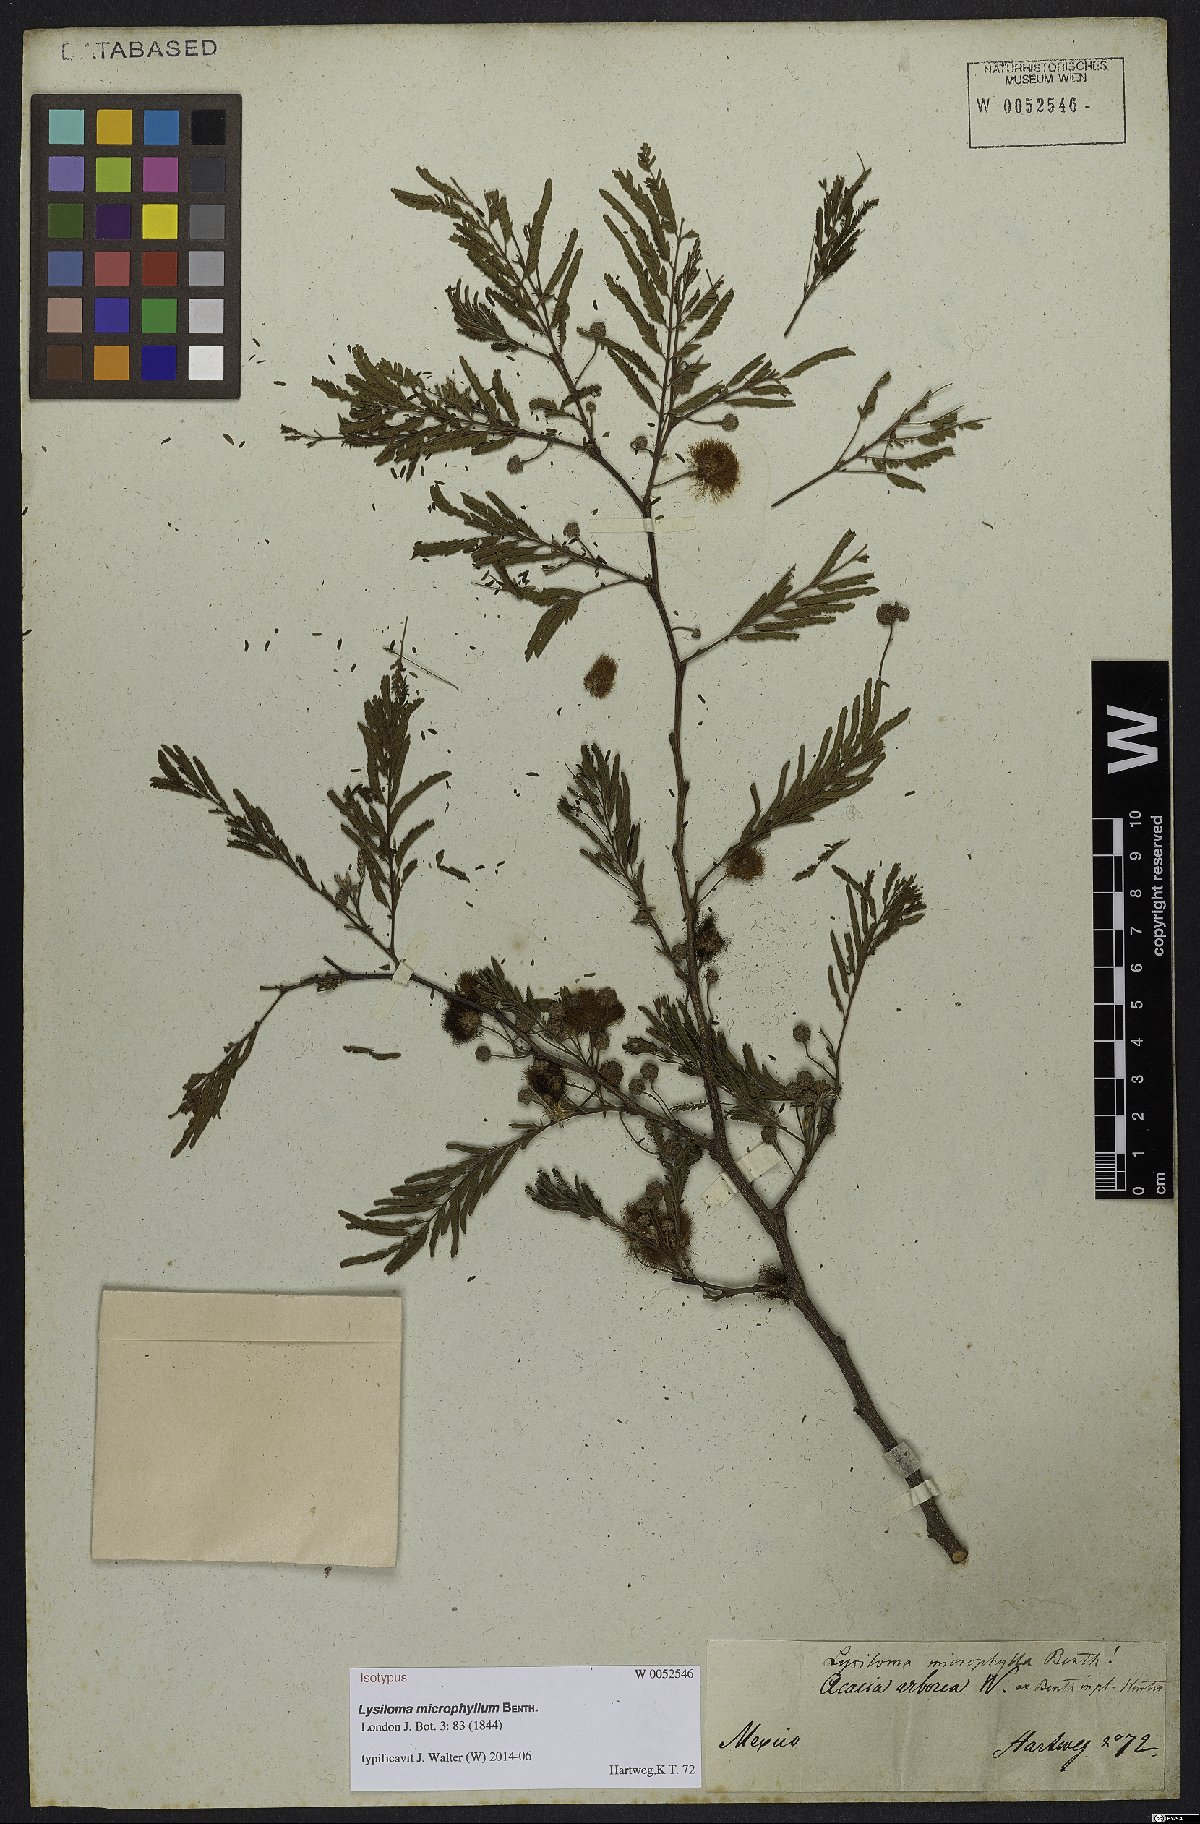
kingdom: Plantae
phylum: Tracheophyta
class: Magnoliopsida
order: Fabales
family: Fabaceae
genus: Lysiloma
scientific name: Lysiloma divaricatum
